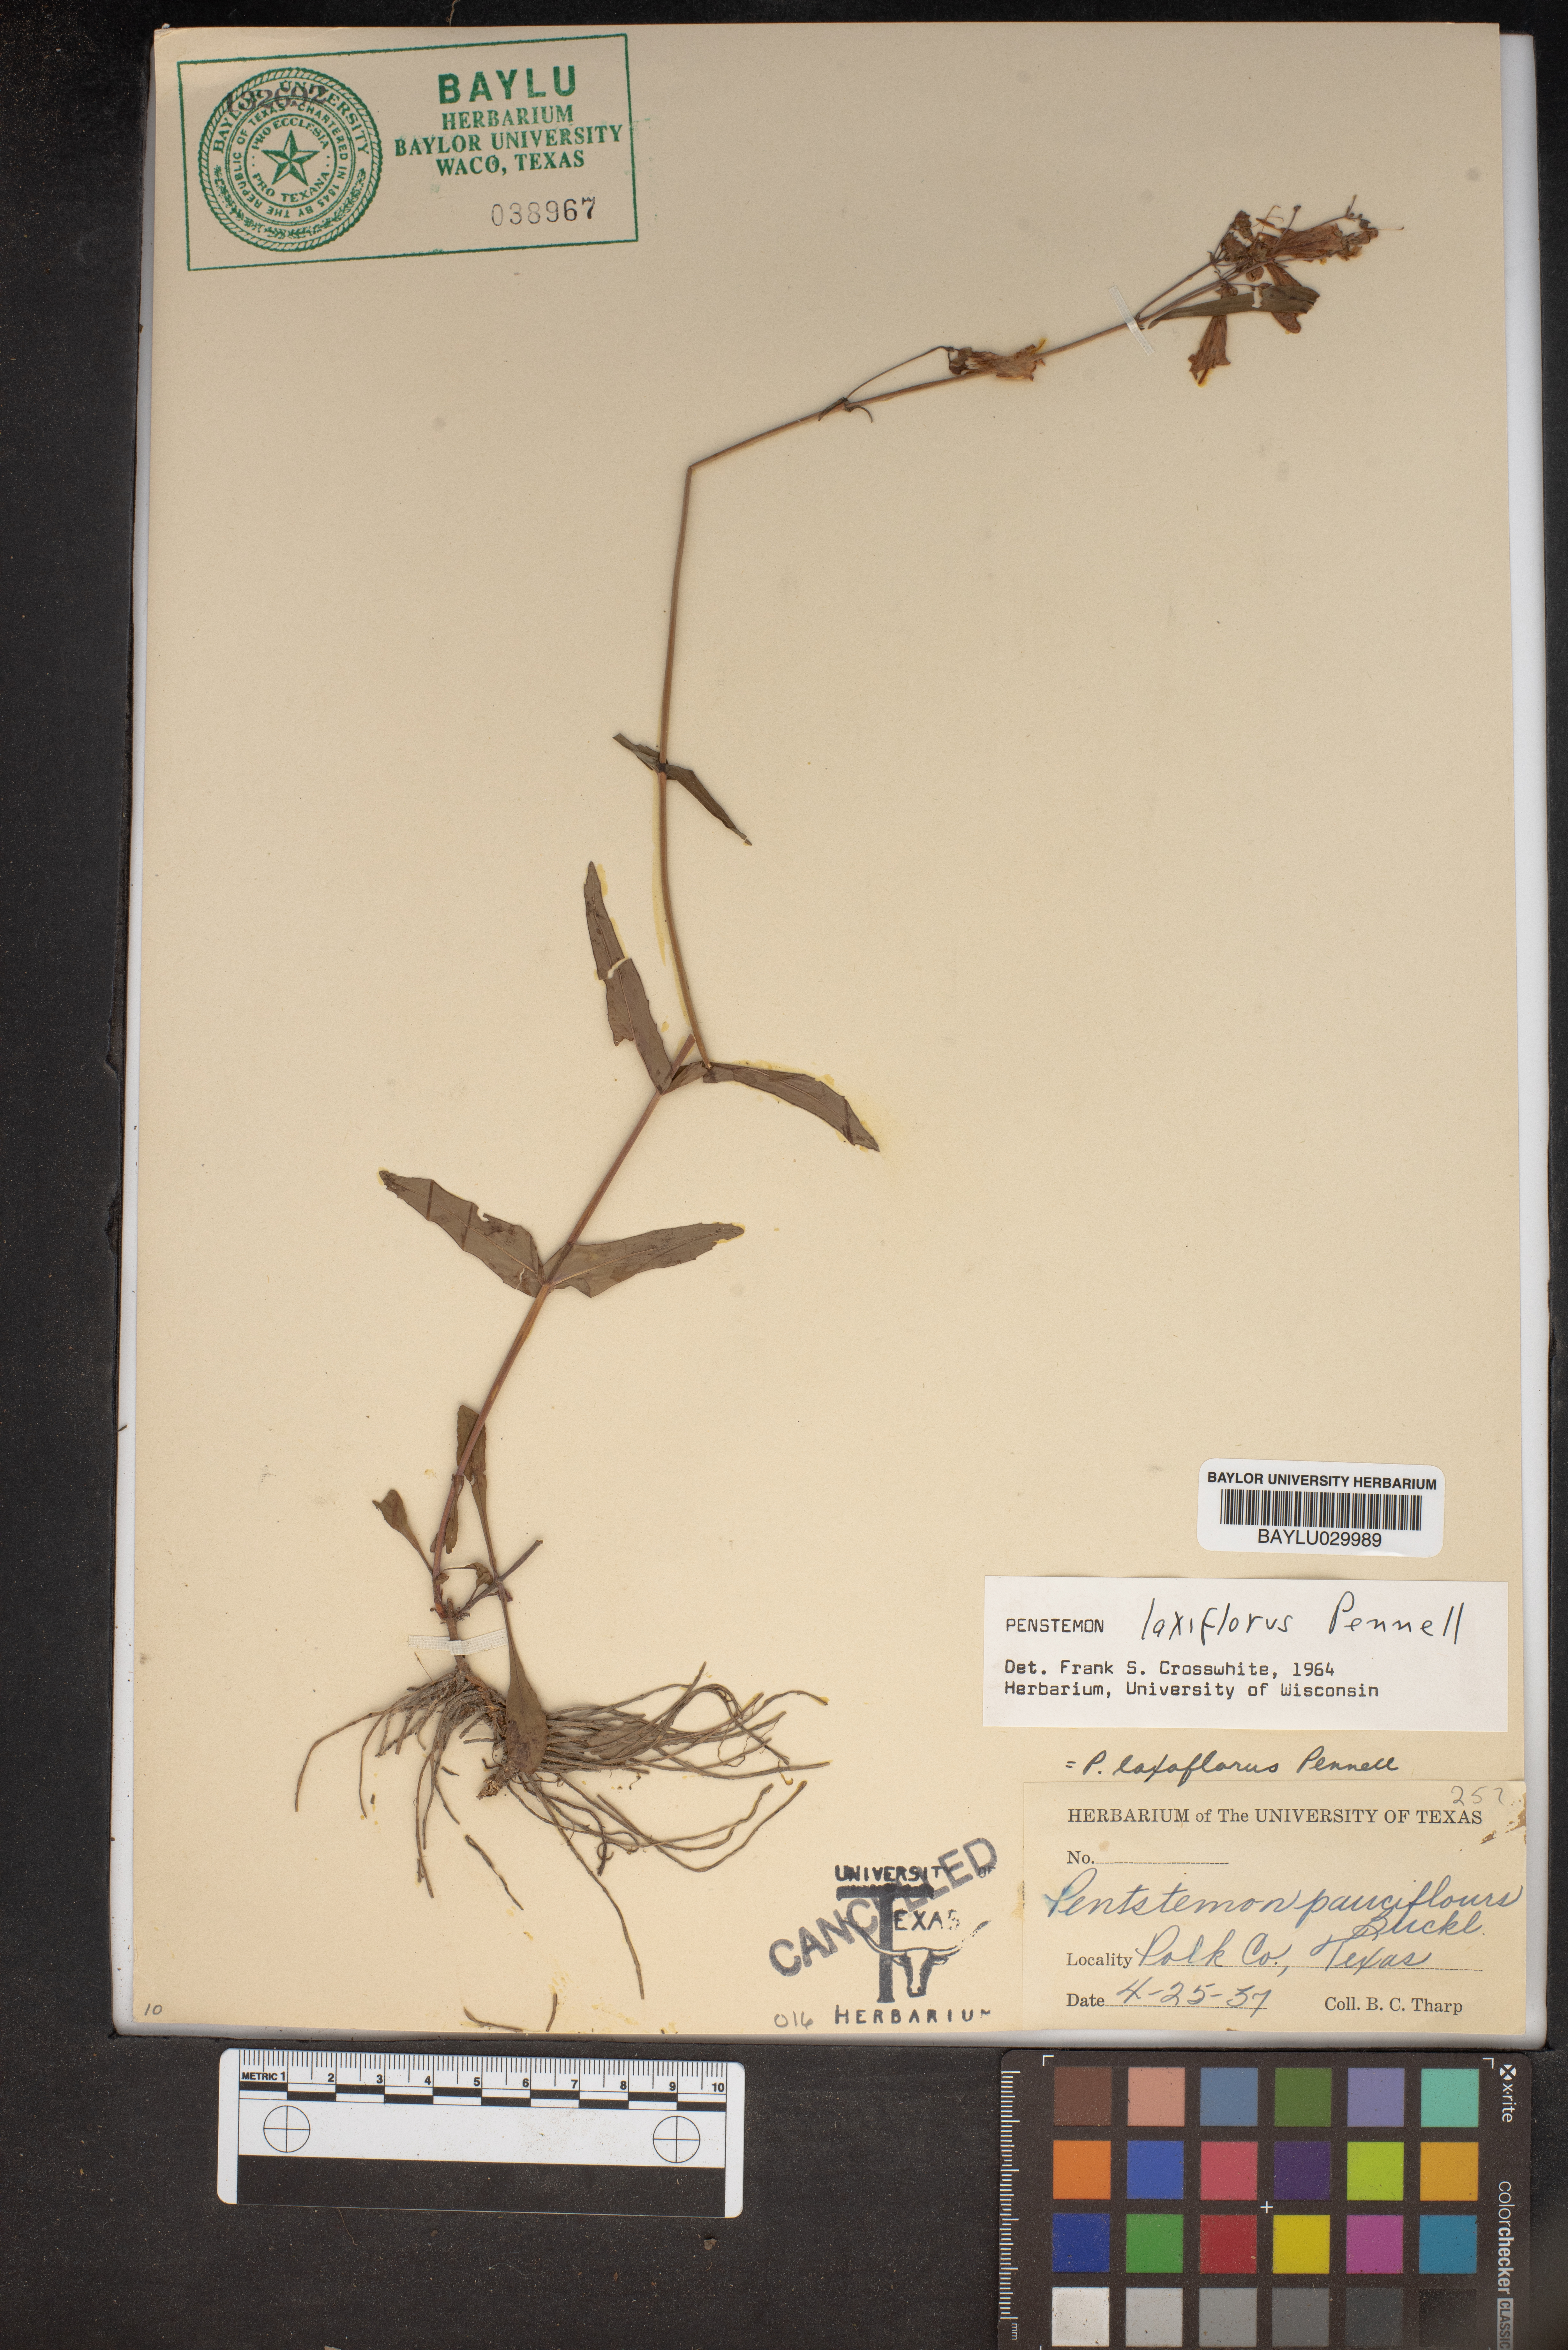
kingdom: Plantae
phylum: Tracheophyta
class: Magnoliopsida
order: Lamiales
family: Plantaginaceae
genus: Penstemon
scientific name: Penstemon laxiflorus
